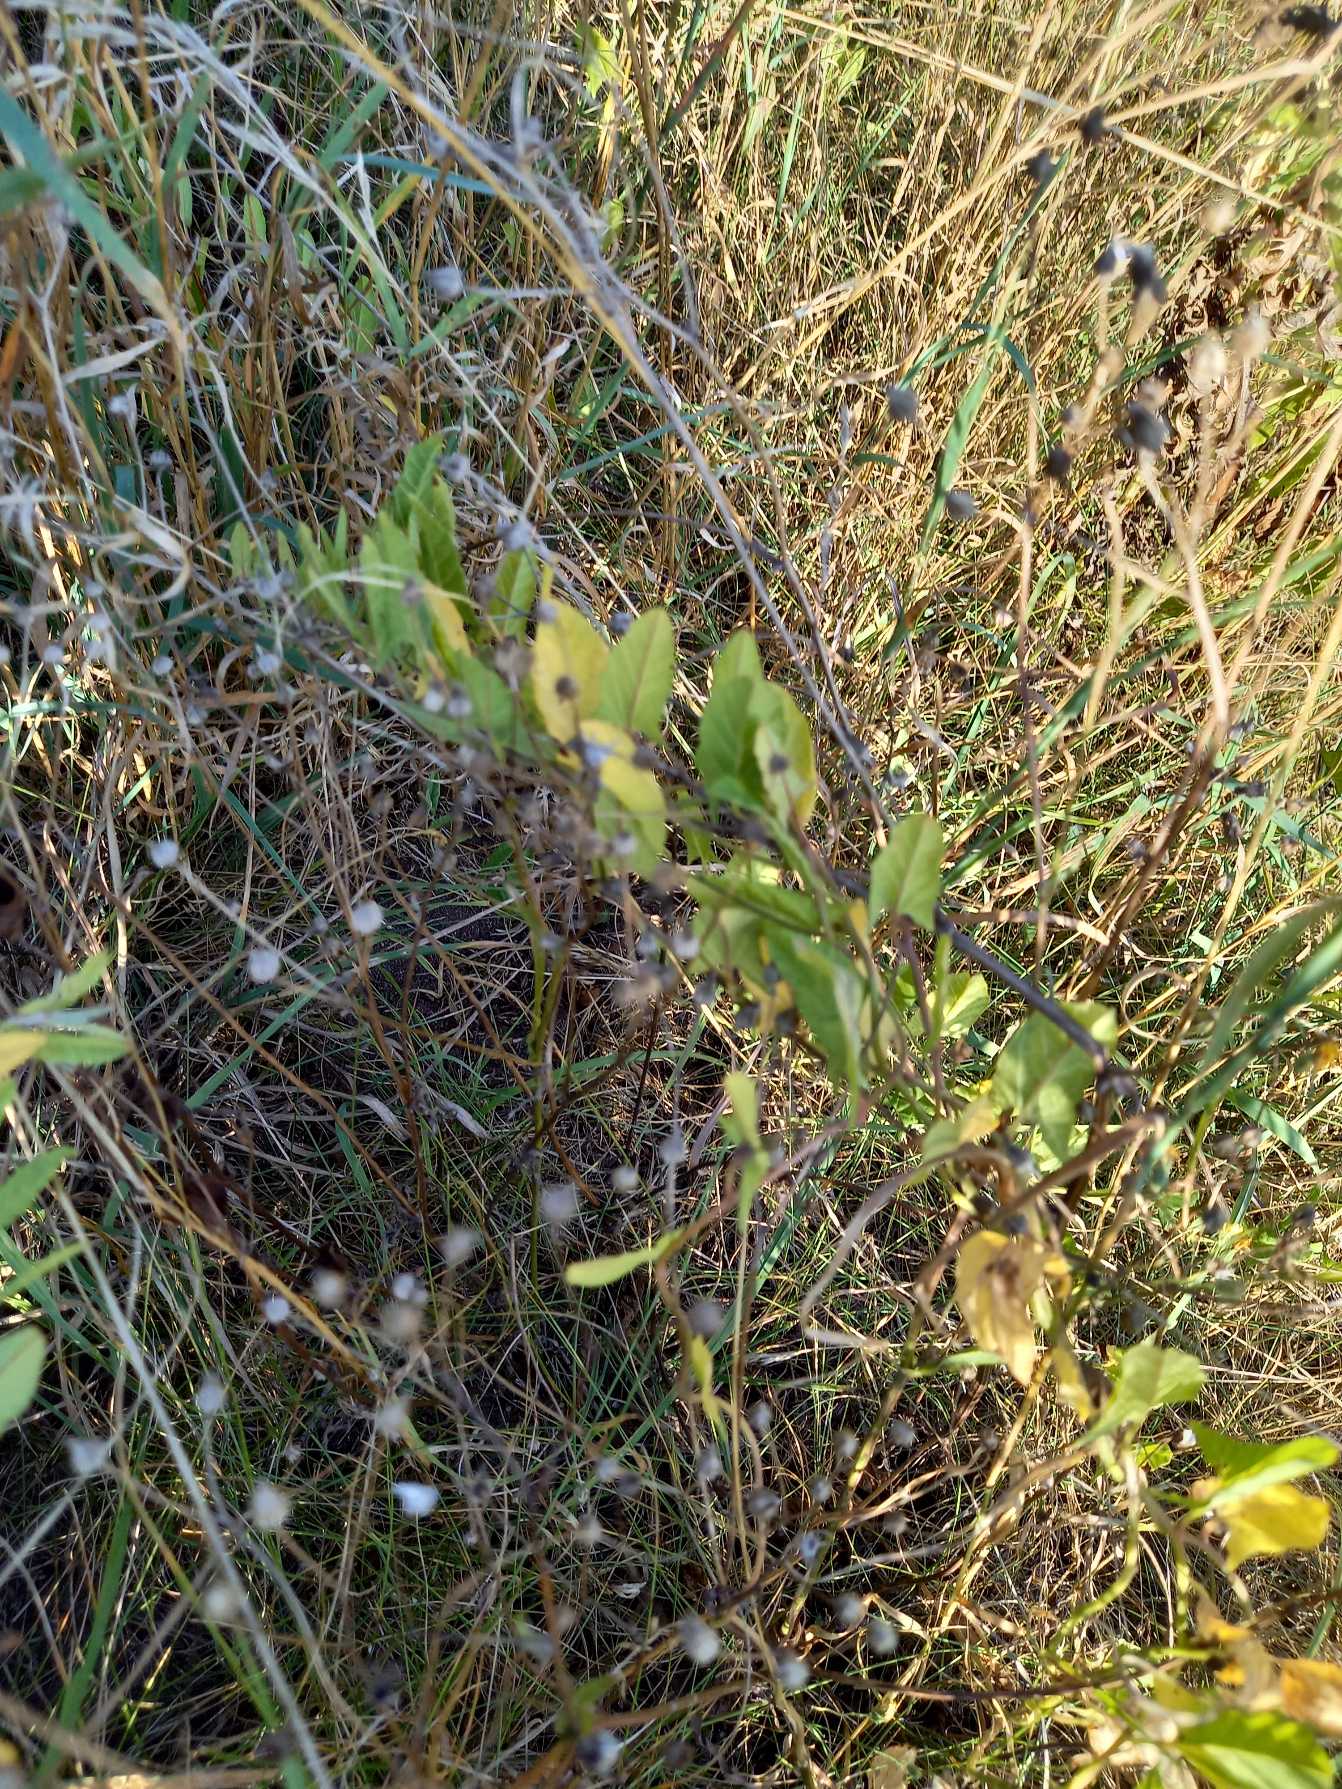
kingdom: Plantae
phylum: Tracheophyta
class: Magnoliopsida
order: Solanales
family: Convolvulaceae
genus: Convolvulus
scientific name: Convolvulus arvensis
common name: Ager-snerle
